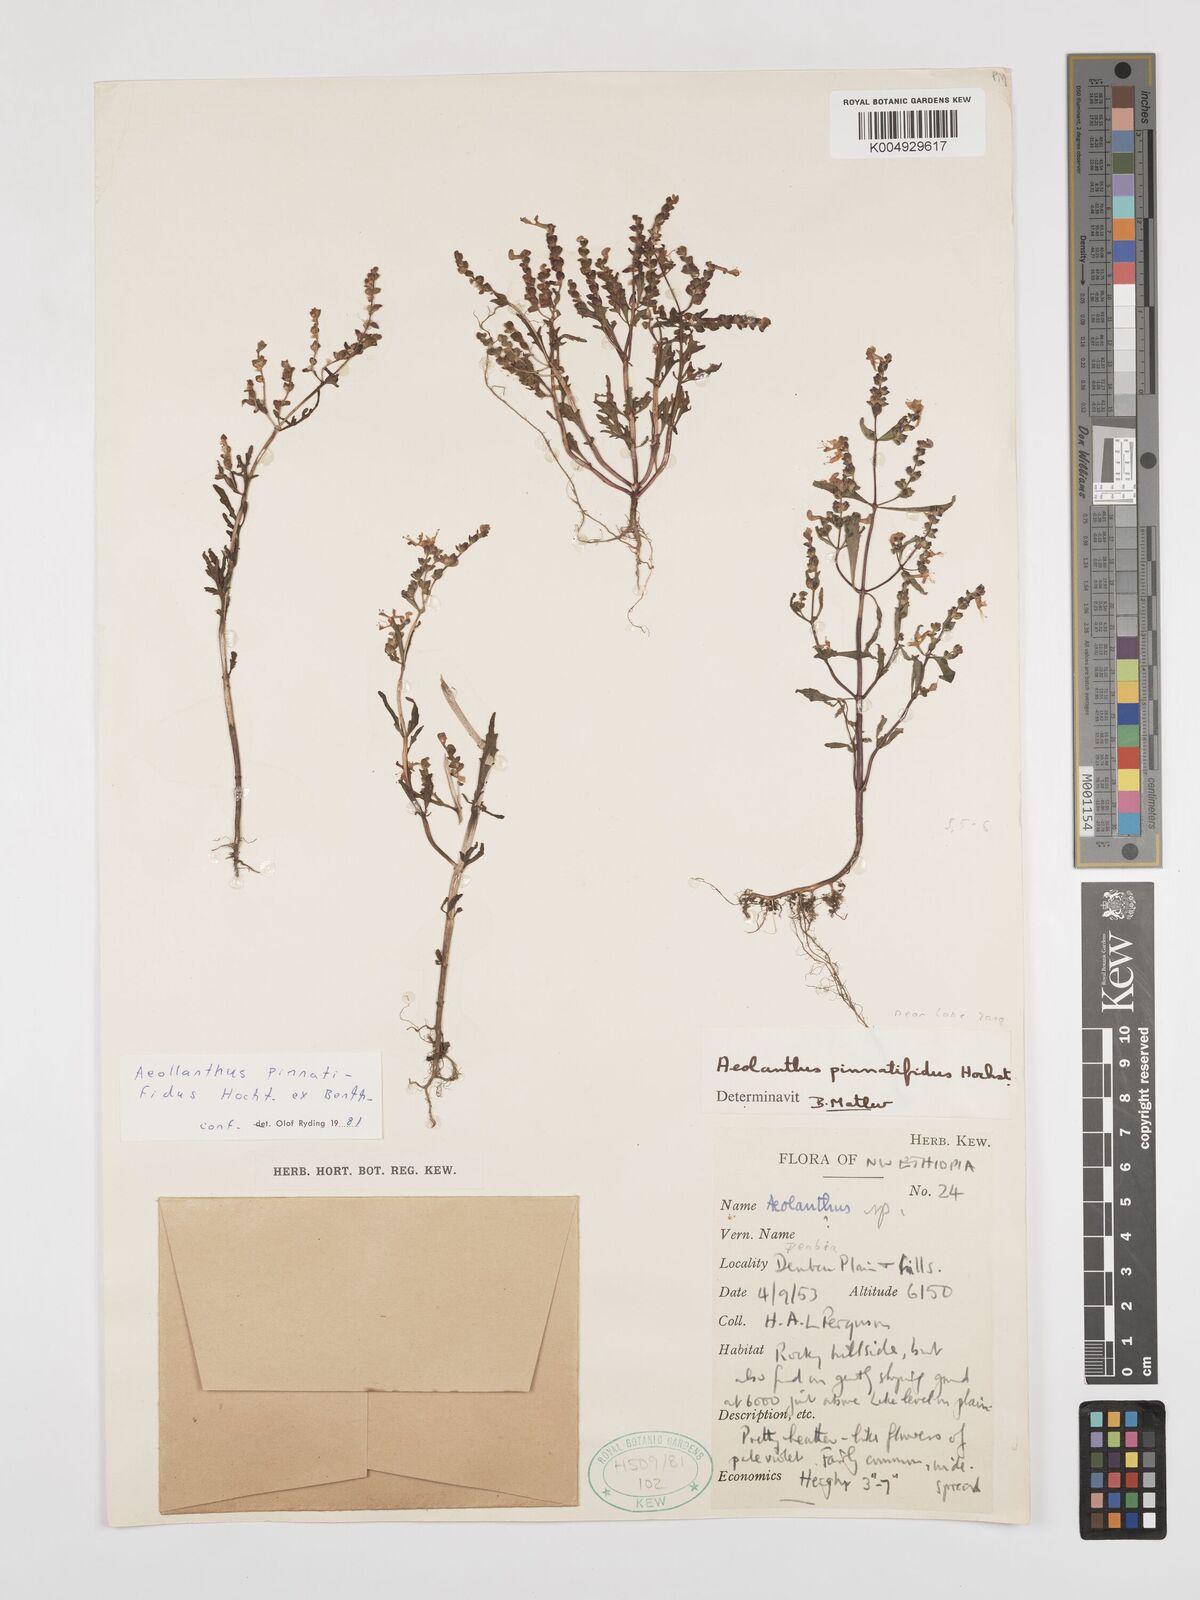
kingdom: Plantae
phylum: Tracheophyta
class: Magnoliopsida
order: Lamiales
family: Lamiaceae
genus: Aeollanthus
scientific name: Aeollanthus pinnatifidus
